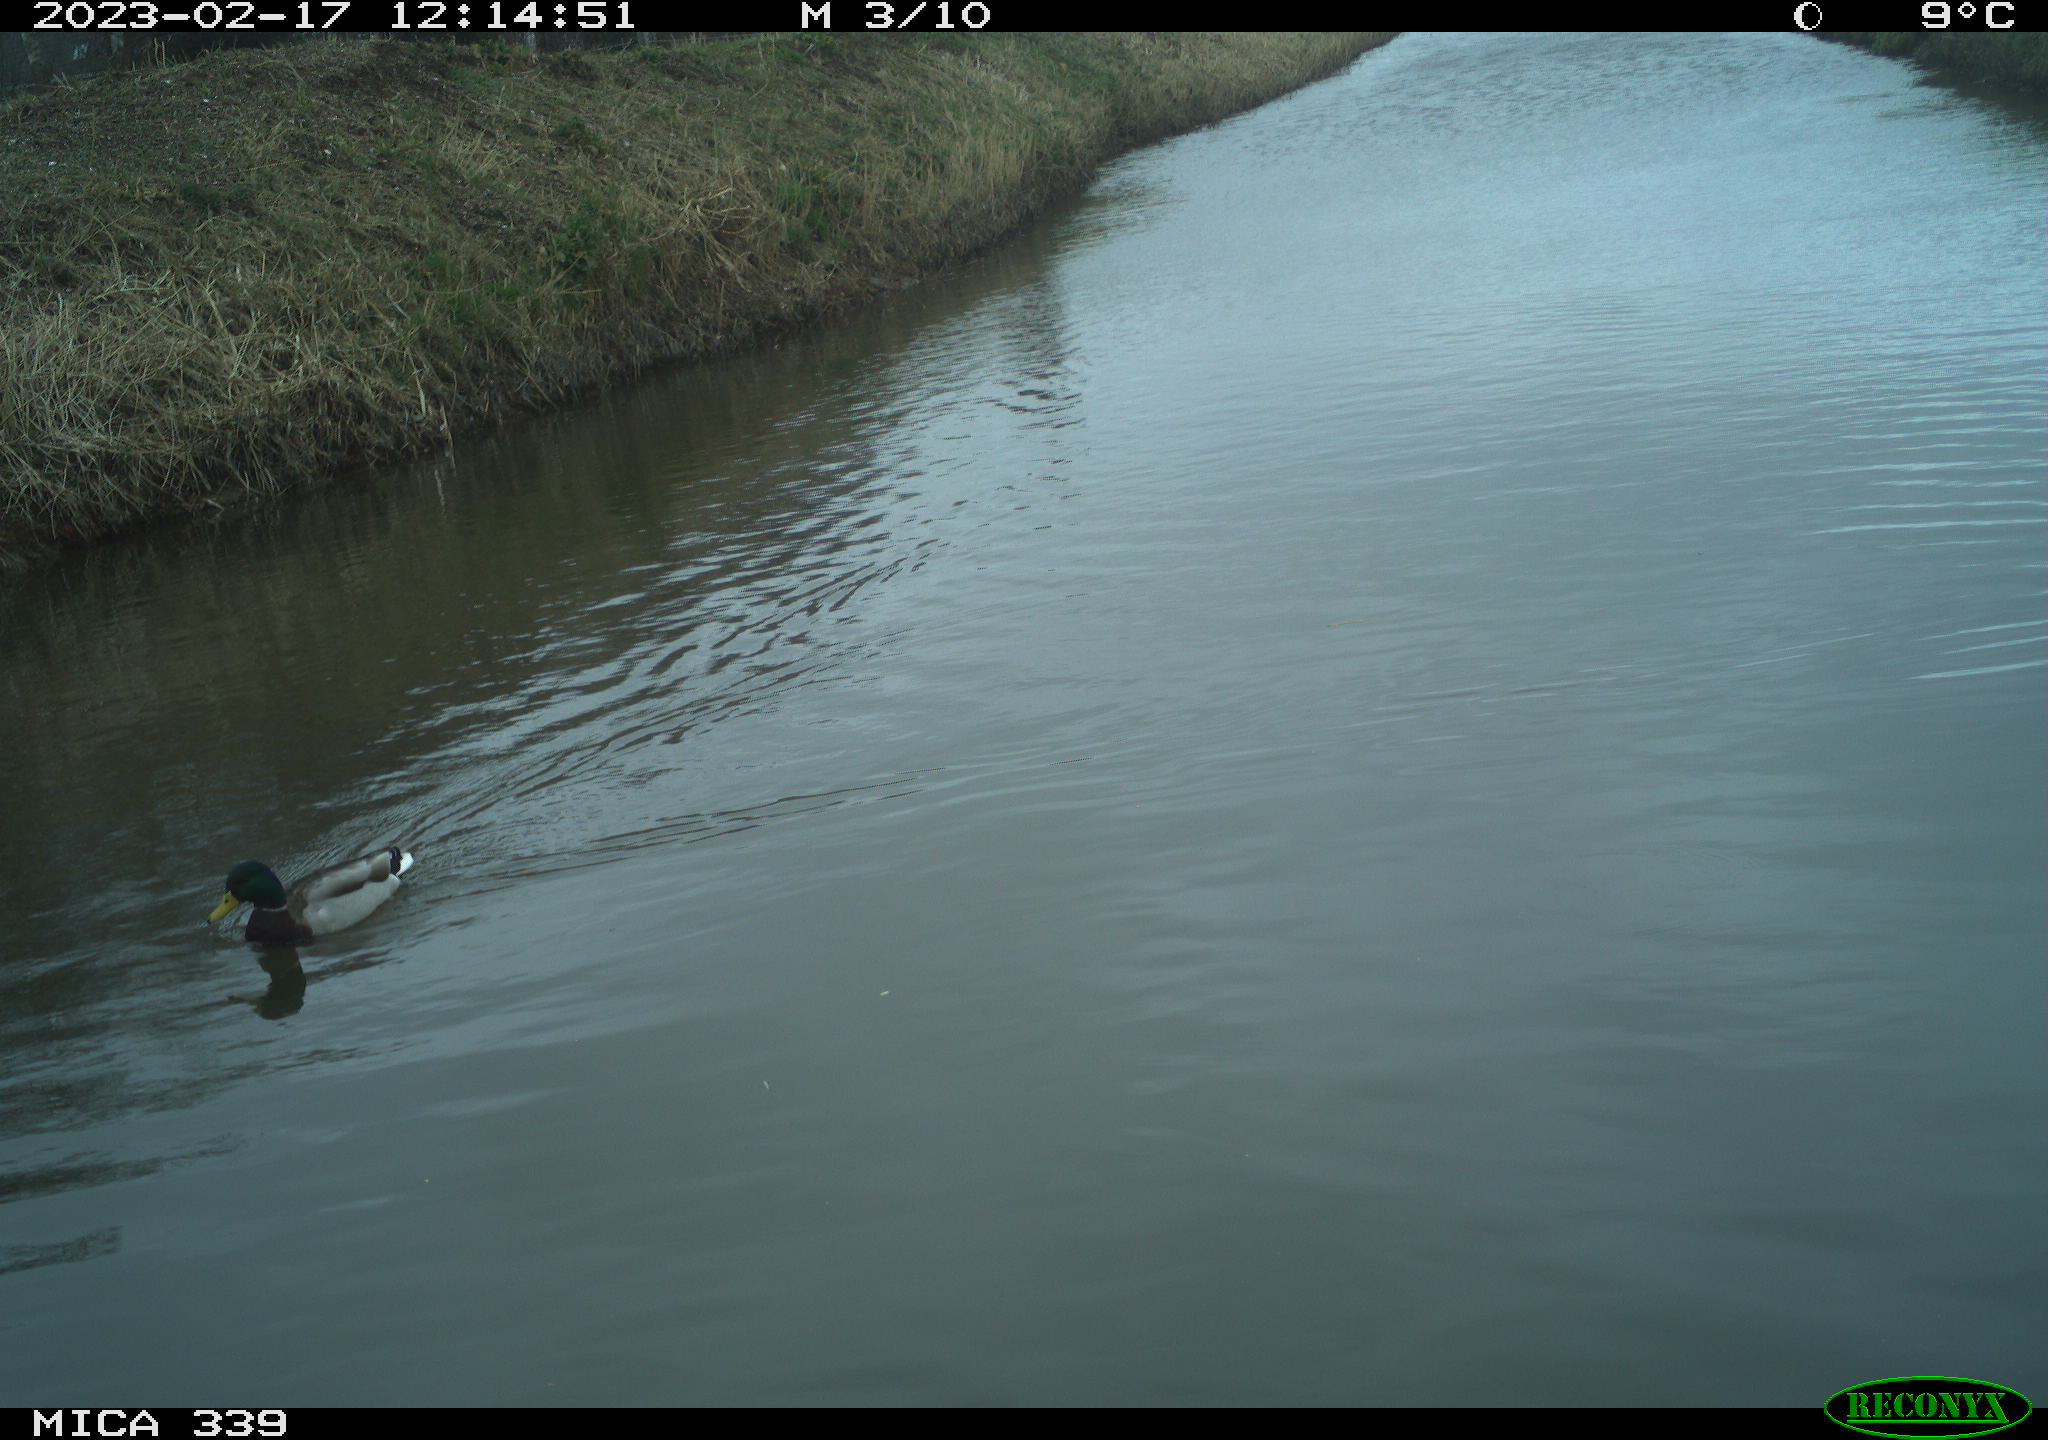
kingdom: Animalia
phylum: Chordata
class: Aves
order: Anseriformes
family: Anatidae
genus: Anas
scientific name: Anas
